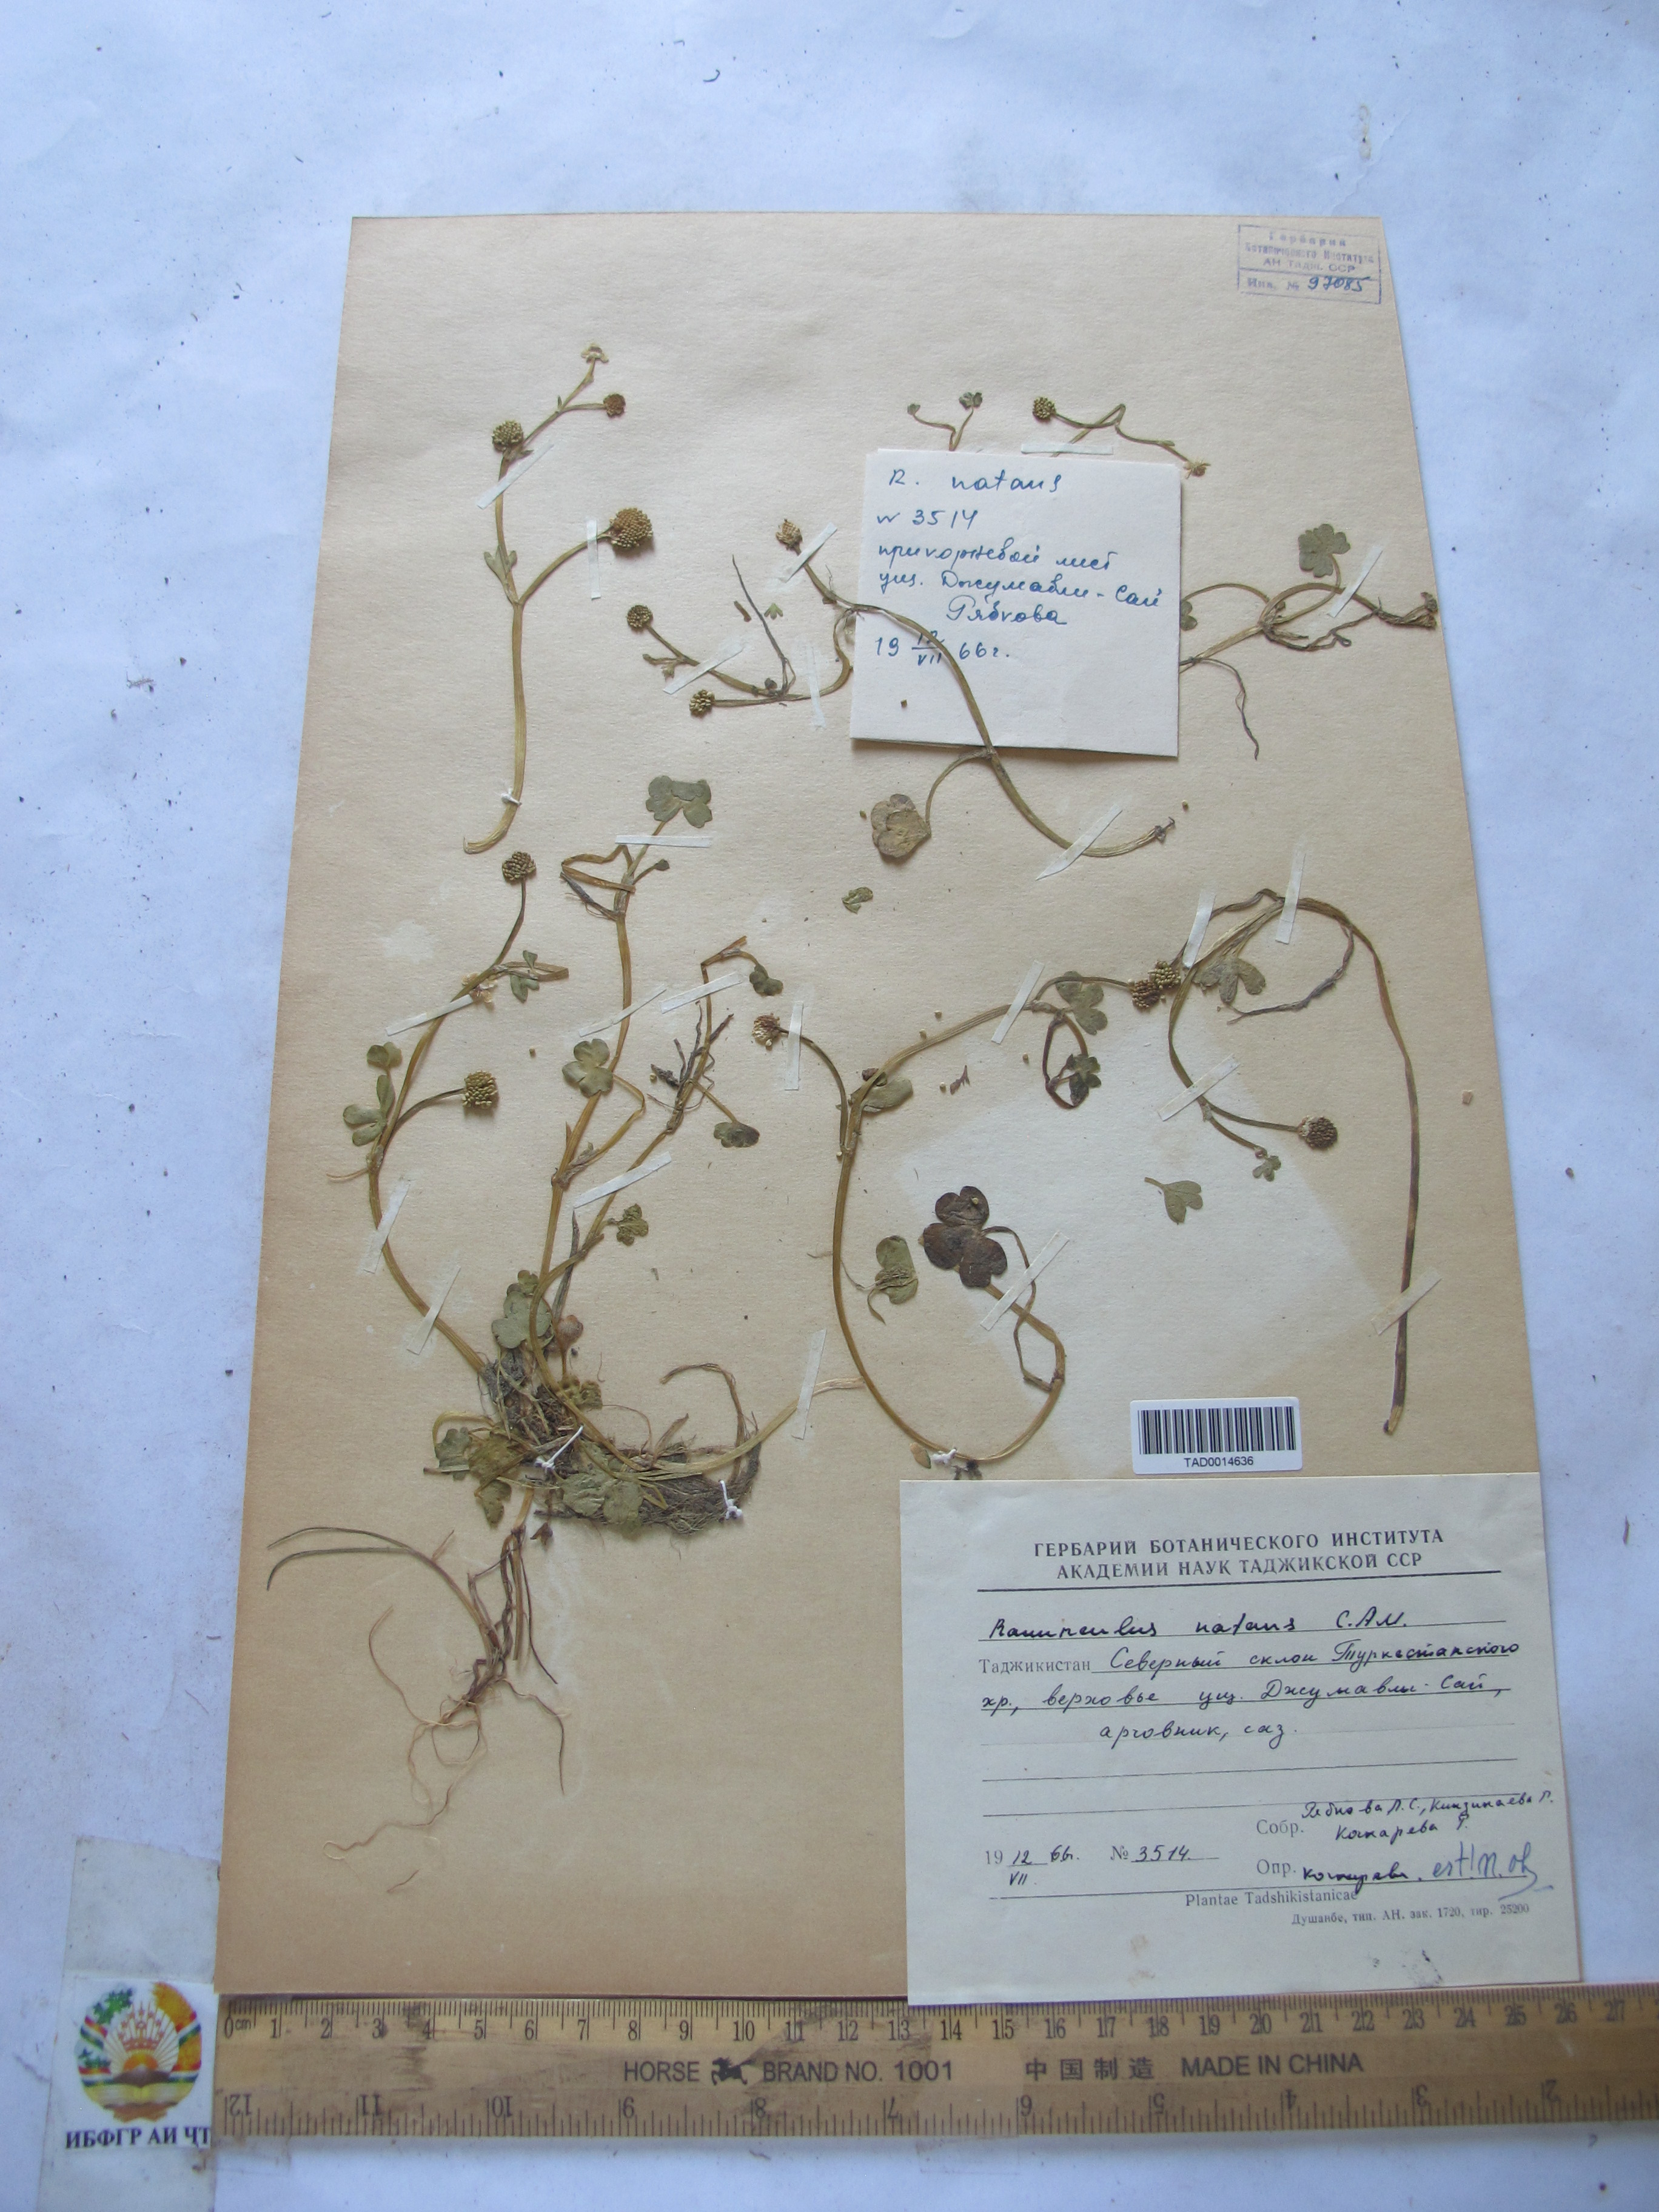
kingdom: Plantae
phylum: Tracheophyta
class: Magnoliopsida
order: Ranunculales
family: Ranunculaceae
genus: Ranunculus
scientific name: Ranunculus natans
